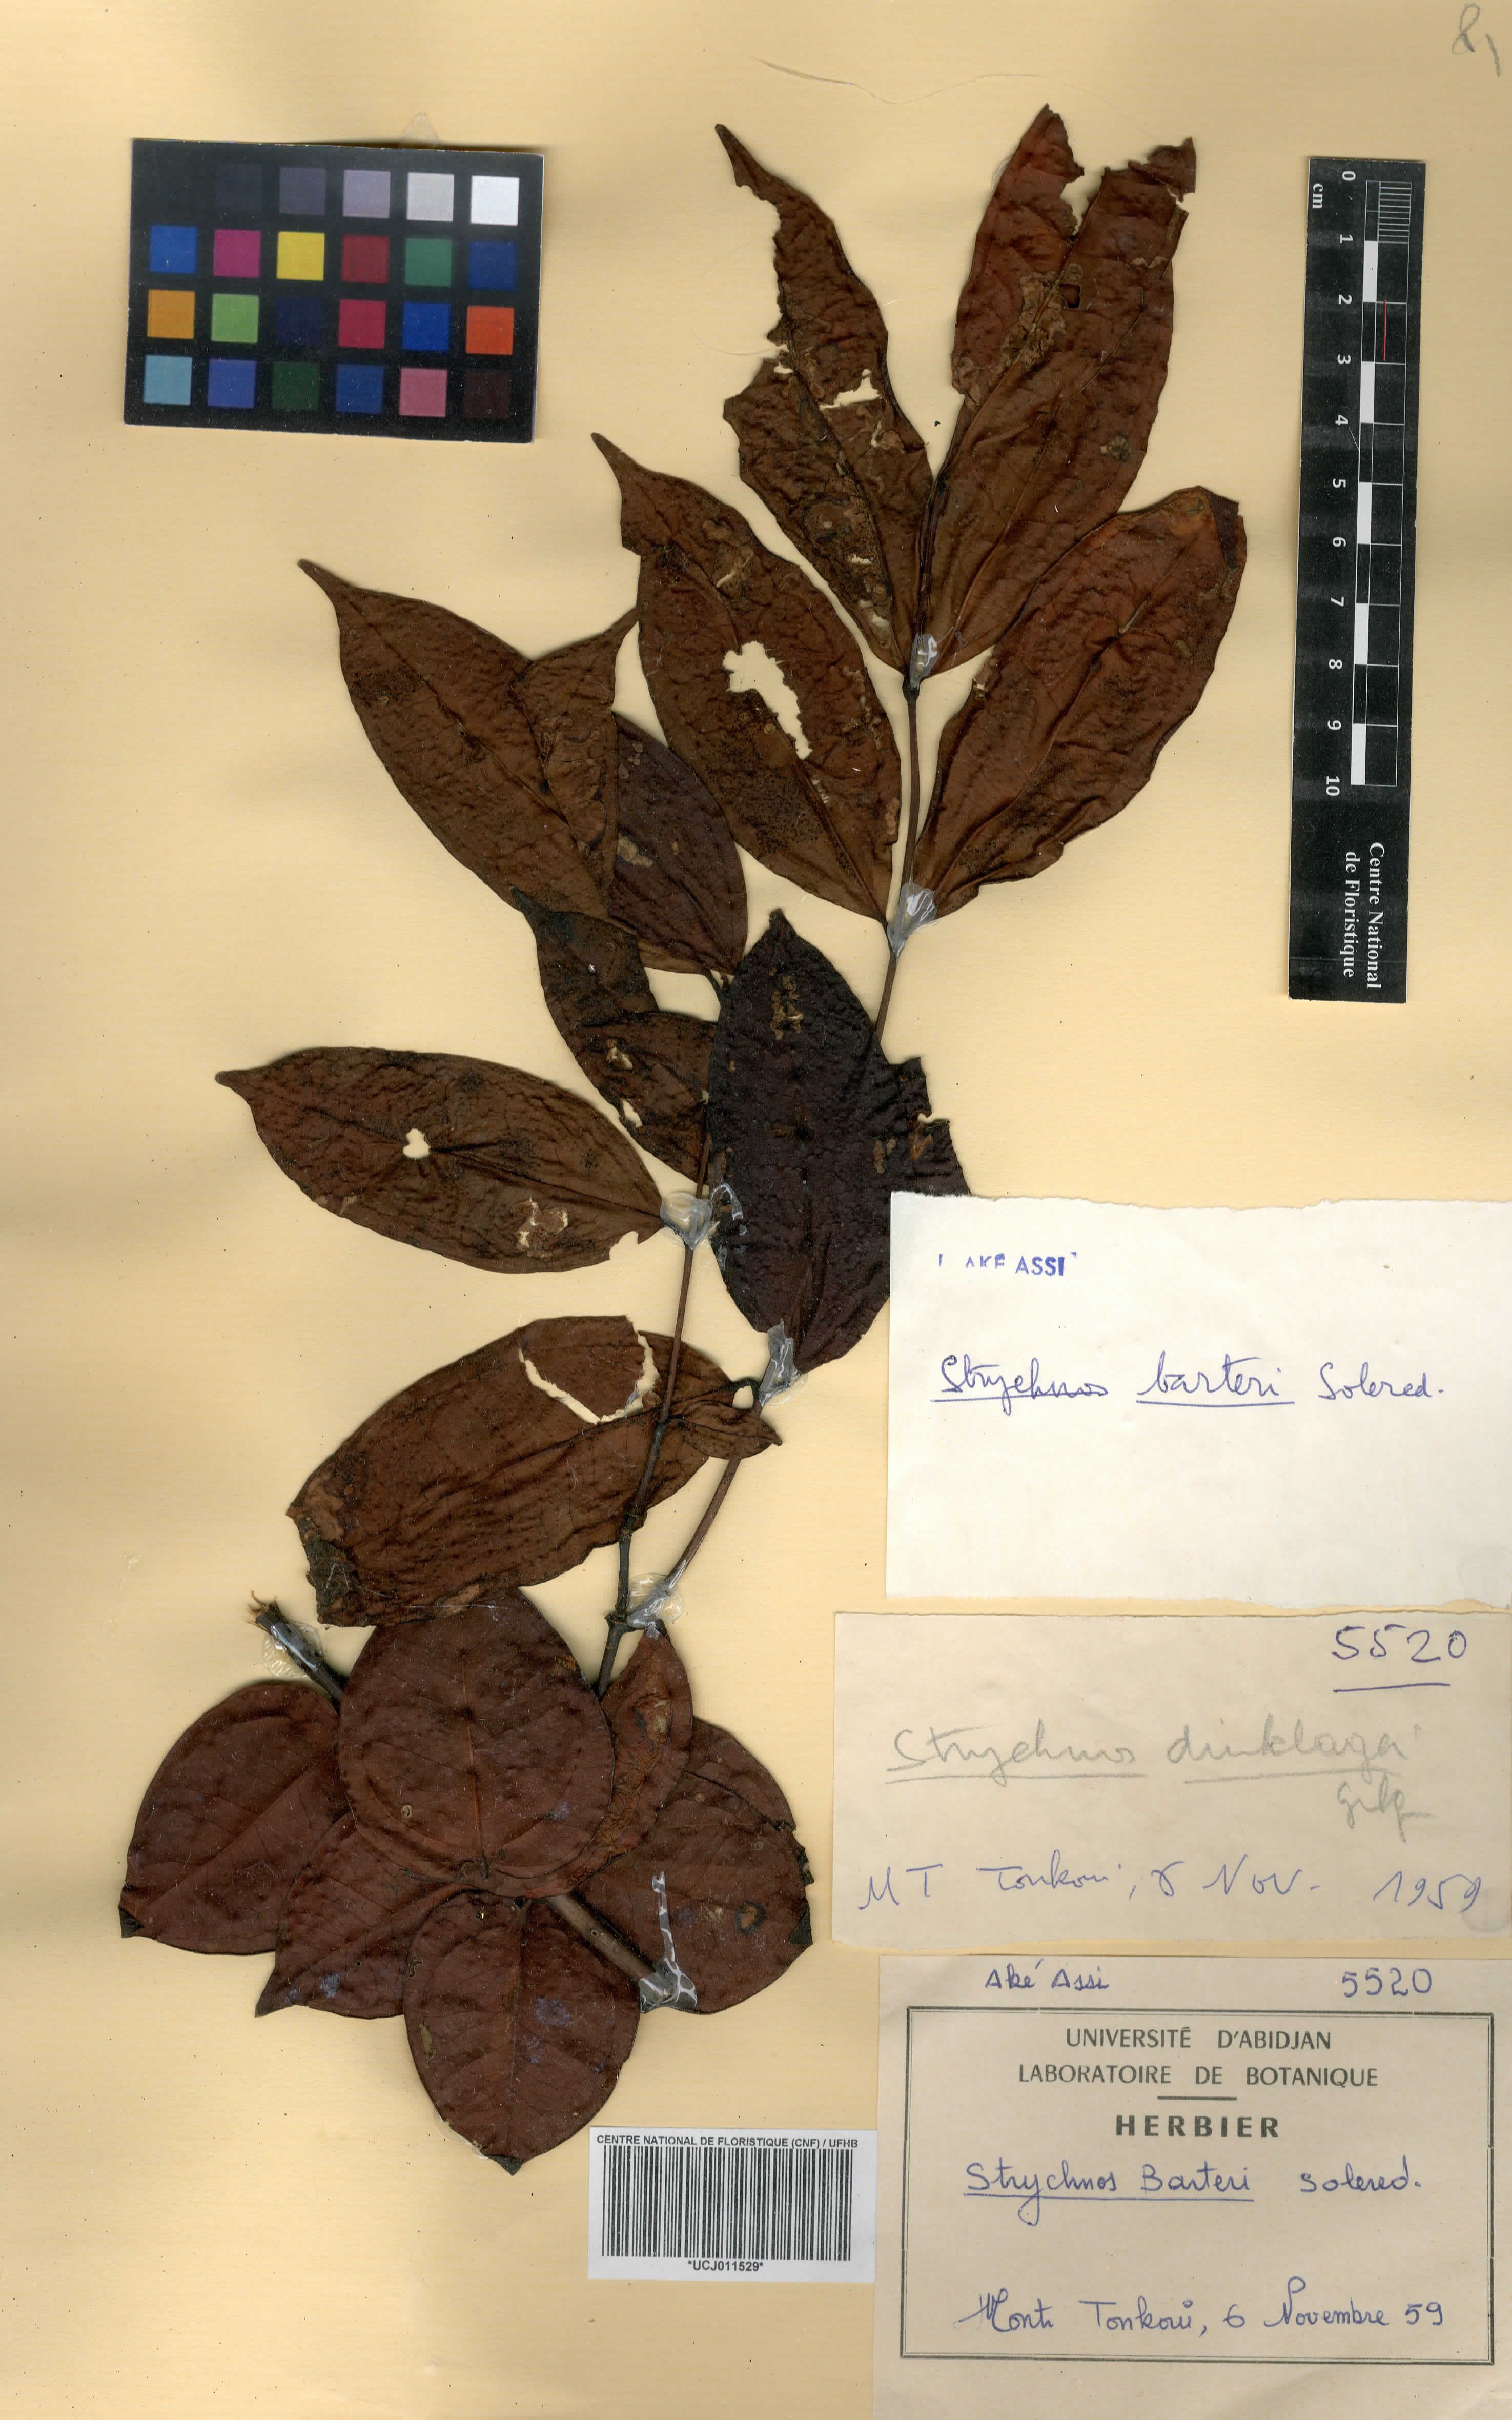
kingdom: Plantae
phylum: Tracheophyta
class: Magnoliopsida
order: Gentianales
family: Loganiaceae
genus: Strychnos
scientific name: Strychnos barteri
